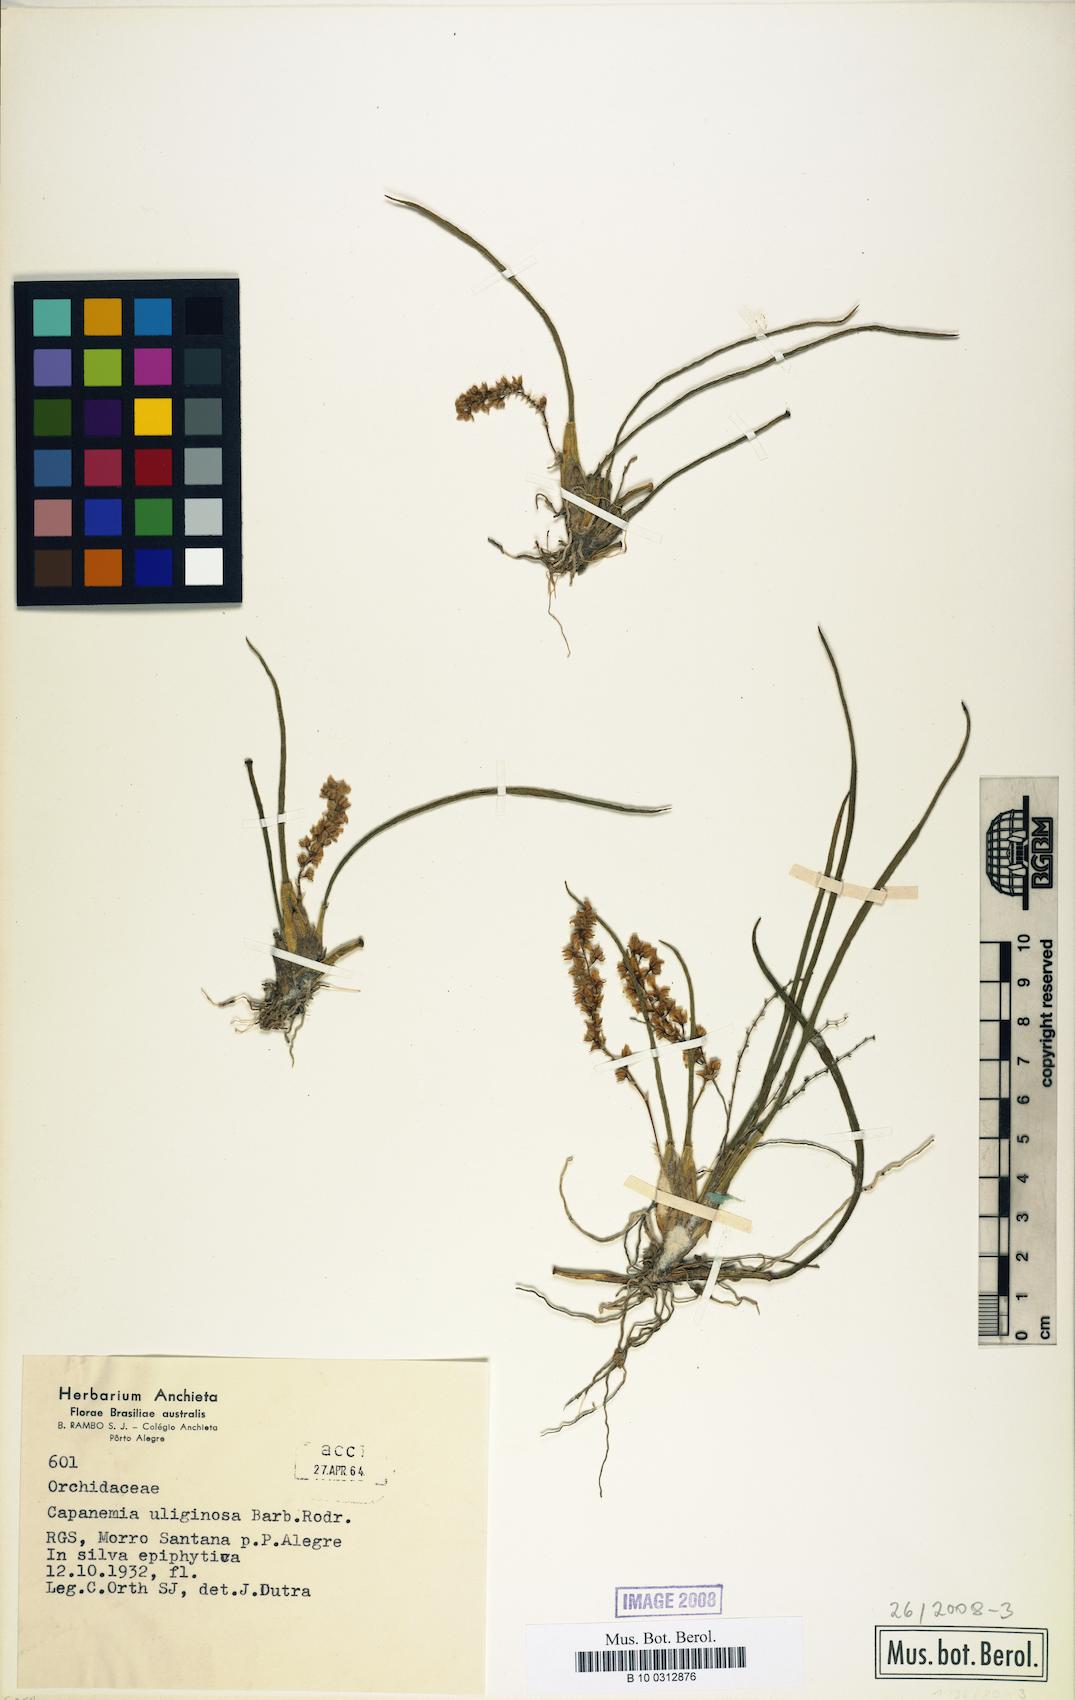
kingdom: Plantae
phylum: Tracheophyta
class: Liliopsida
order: Asparagales
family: Orchidaceae
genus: Capanemia
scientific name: Capanemia superflua
